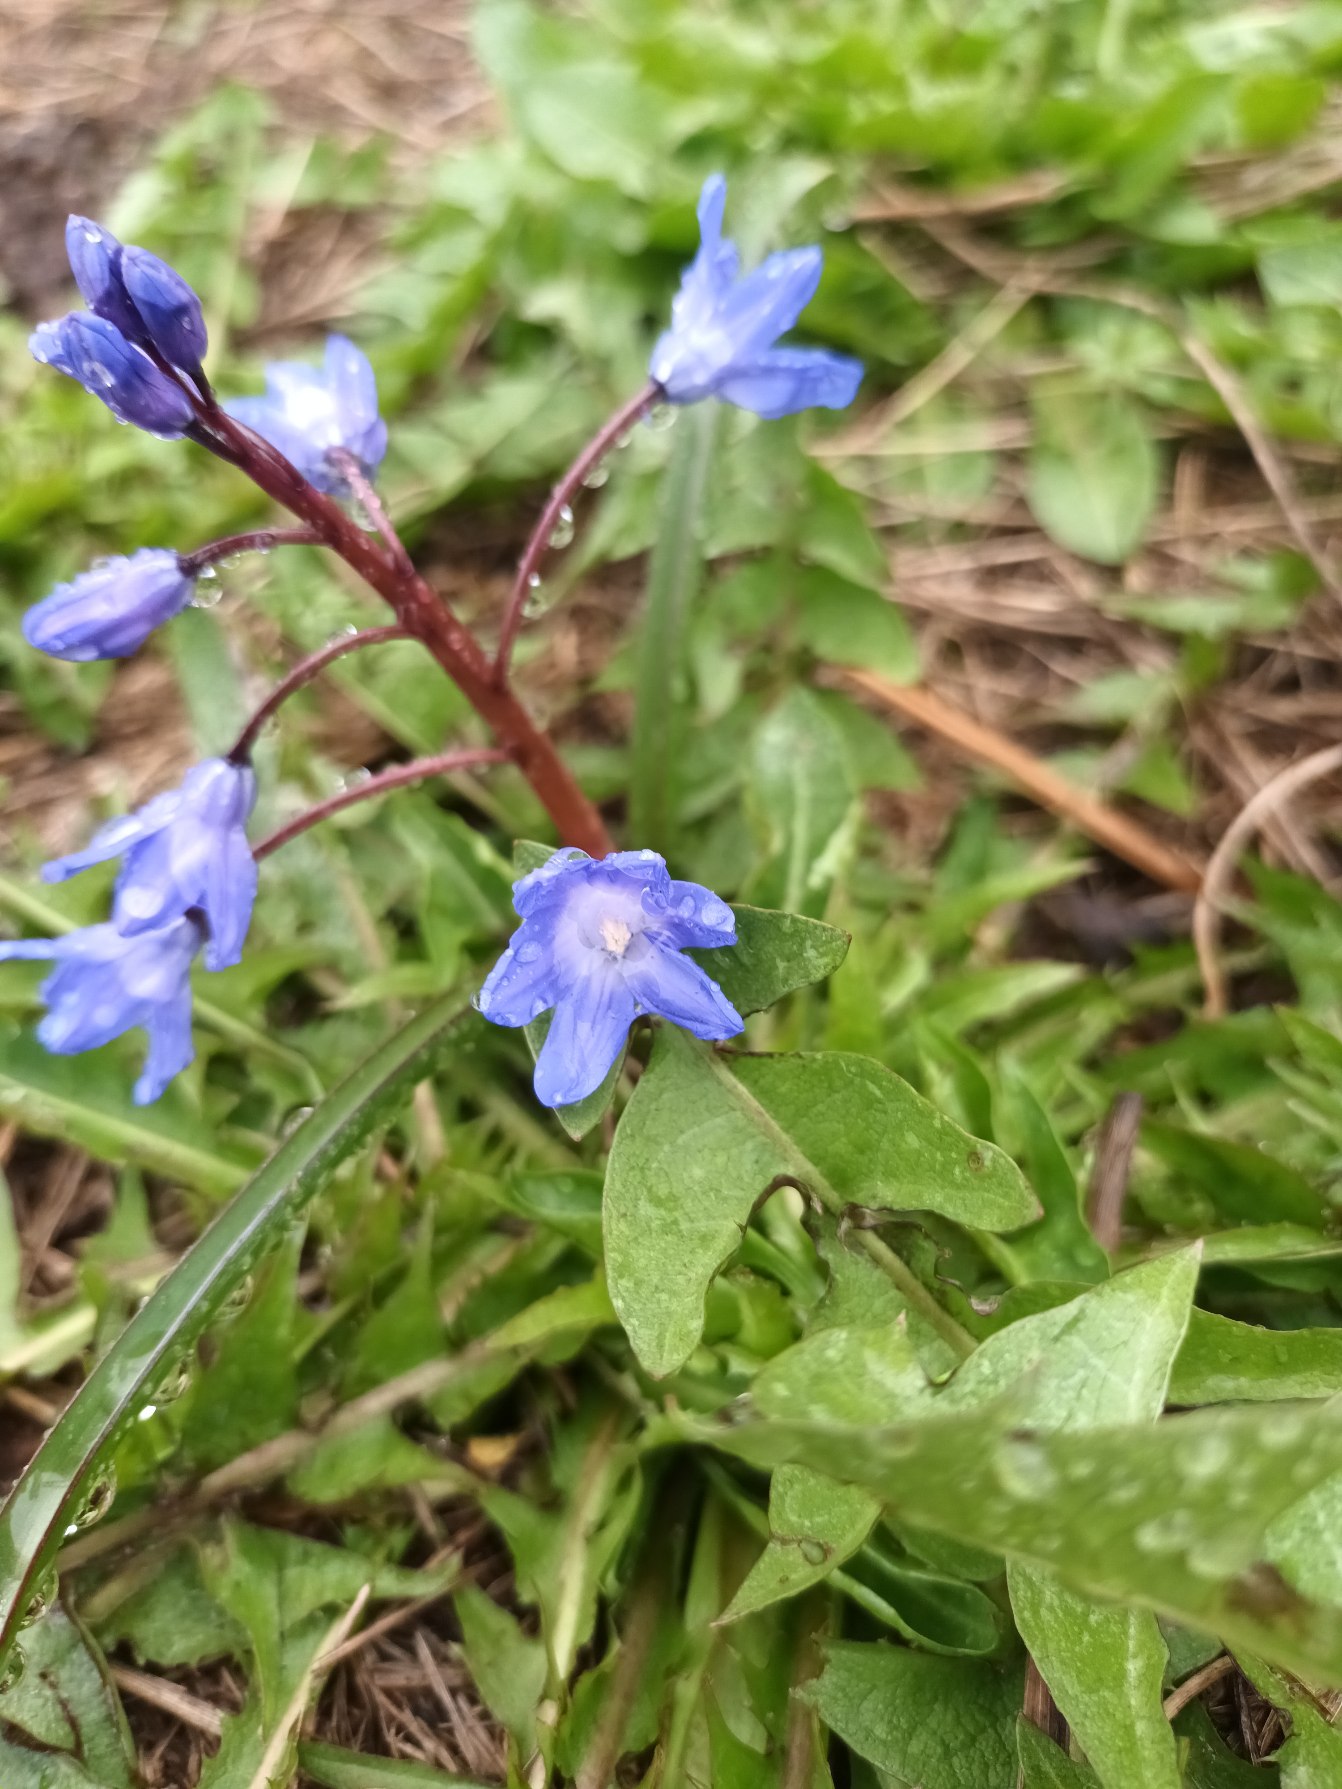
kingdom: Plantae
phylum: Tracheophyta
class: Liliopsida
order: Asparagales
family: Asparagaceae
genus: Scilla
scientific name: Scilla forbesii
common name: Almindelig snepryd
